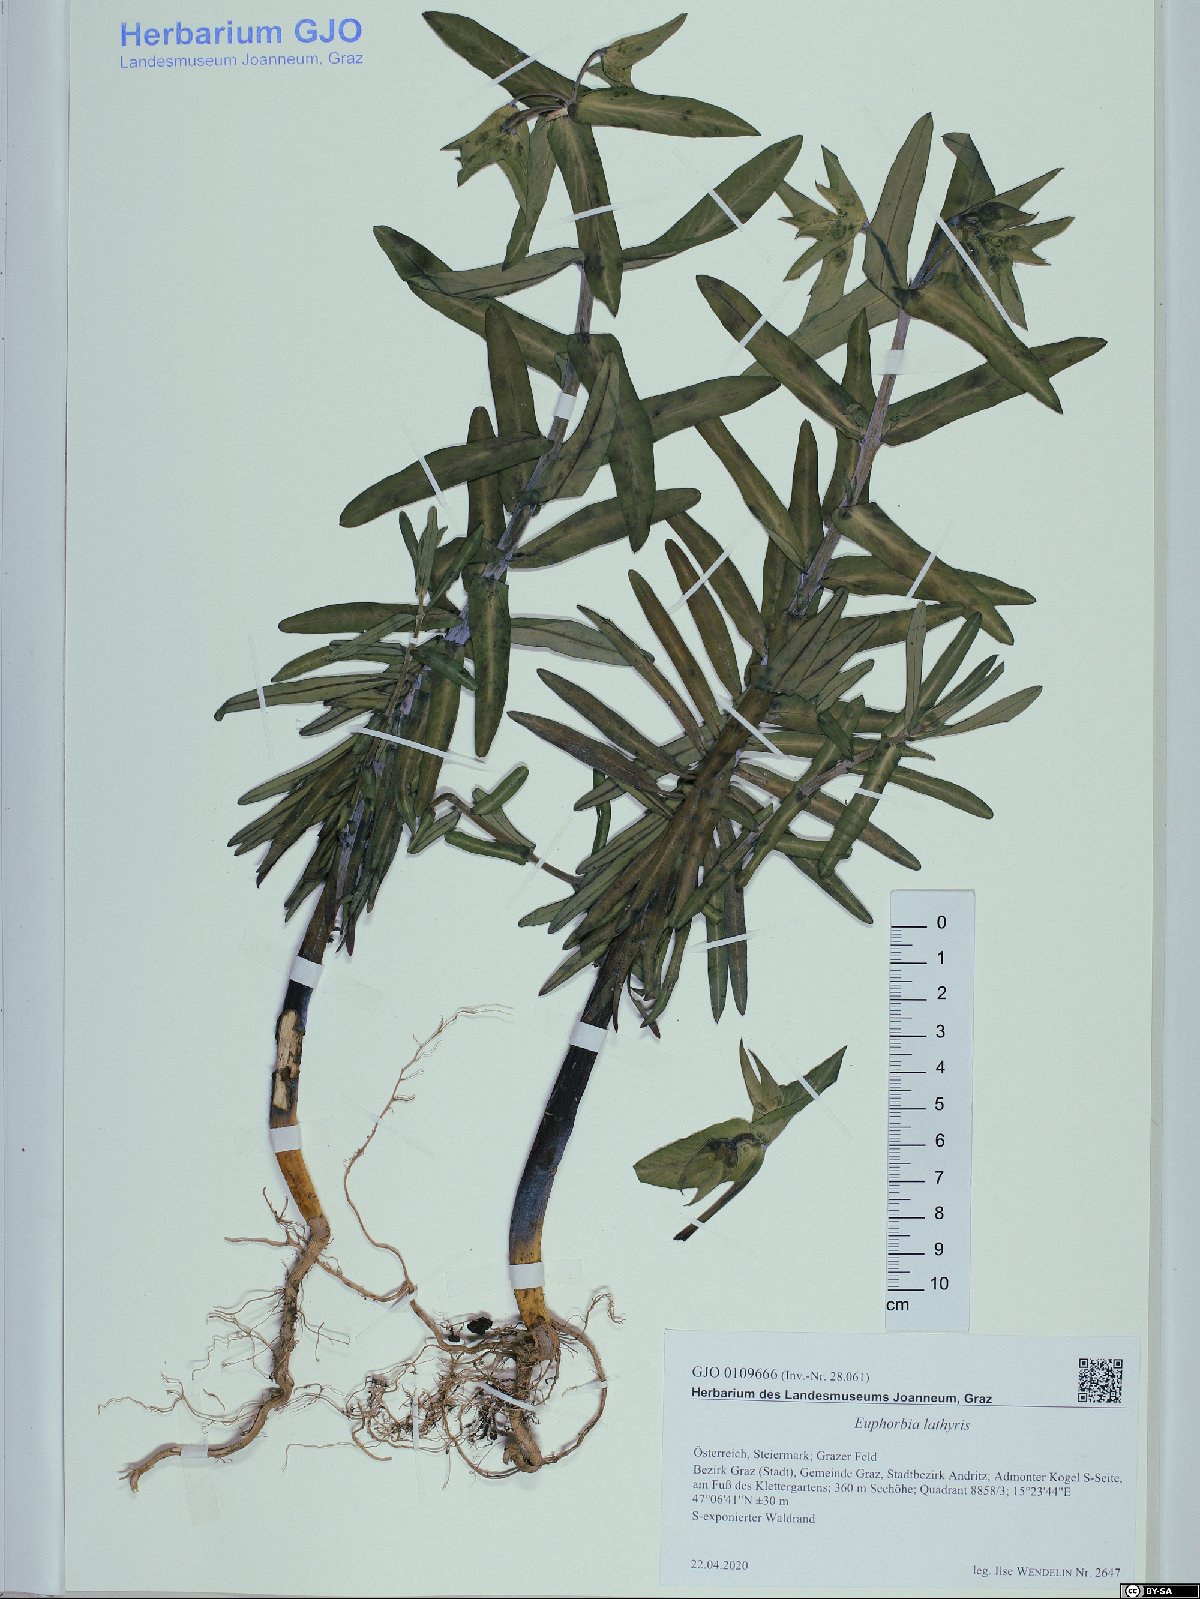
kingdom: Plantae
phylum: Tracheophyta
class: Magnoliopsida
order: Malpighiales
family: Euphorbiaceae
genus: Euphorbia
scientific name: Euphorbia lathyris
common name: Caper spurge
